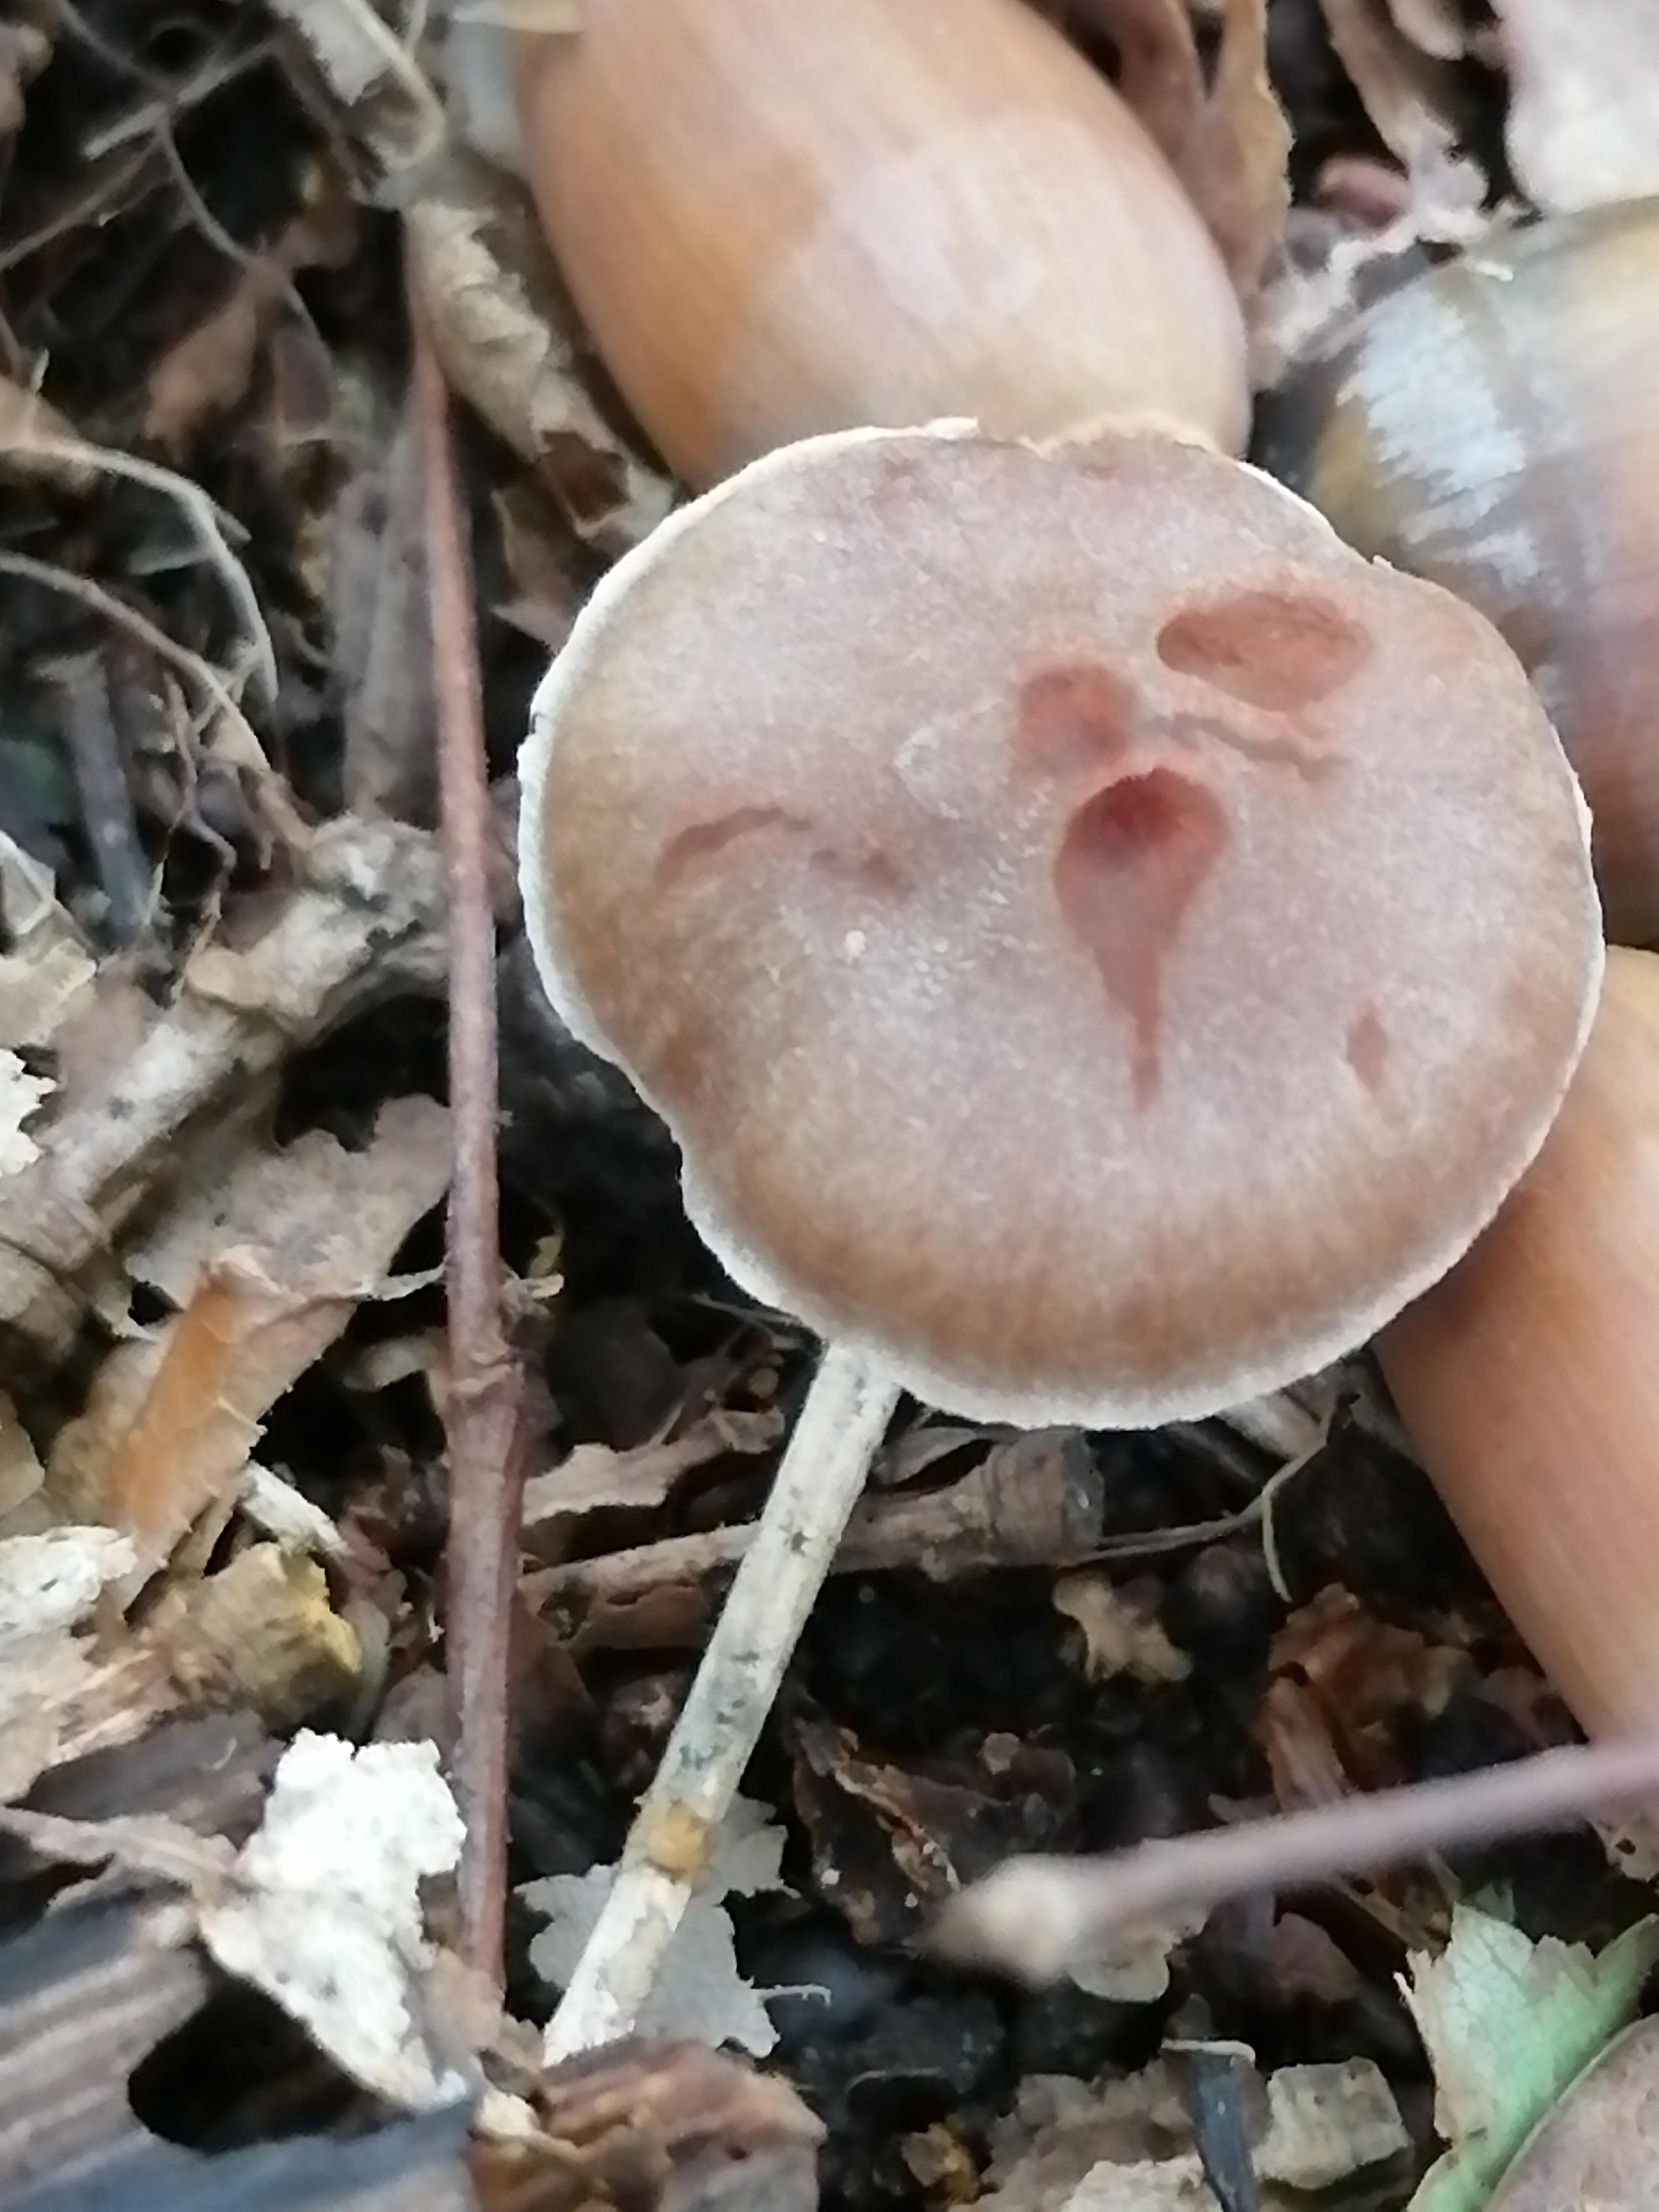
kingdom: Fungi
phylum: Basidiomycota
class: Agaricomycetes
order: Agaricales
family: Cortinariaceae
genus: Cortinarius
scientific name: Cortinarius
